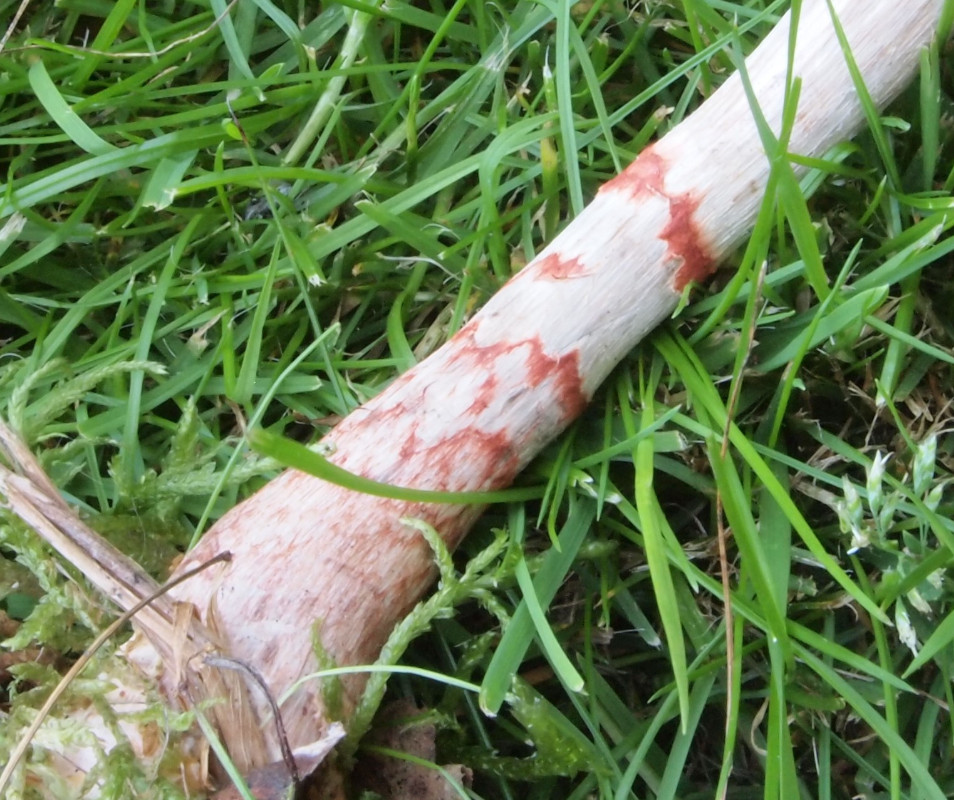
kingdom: Fungi
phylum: Basidiomycota
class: Agaricomycetes
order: Agaricales
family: Cortinariaceae
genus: Cortinarius
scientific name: Cortinarius armillatus
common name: cinnoberbæltet slørhat
